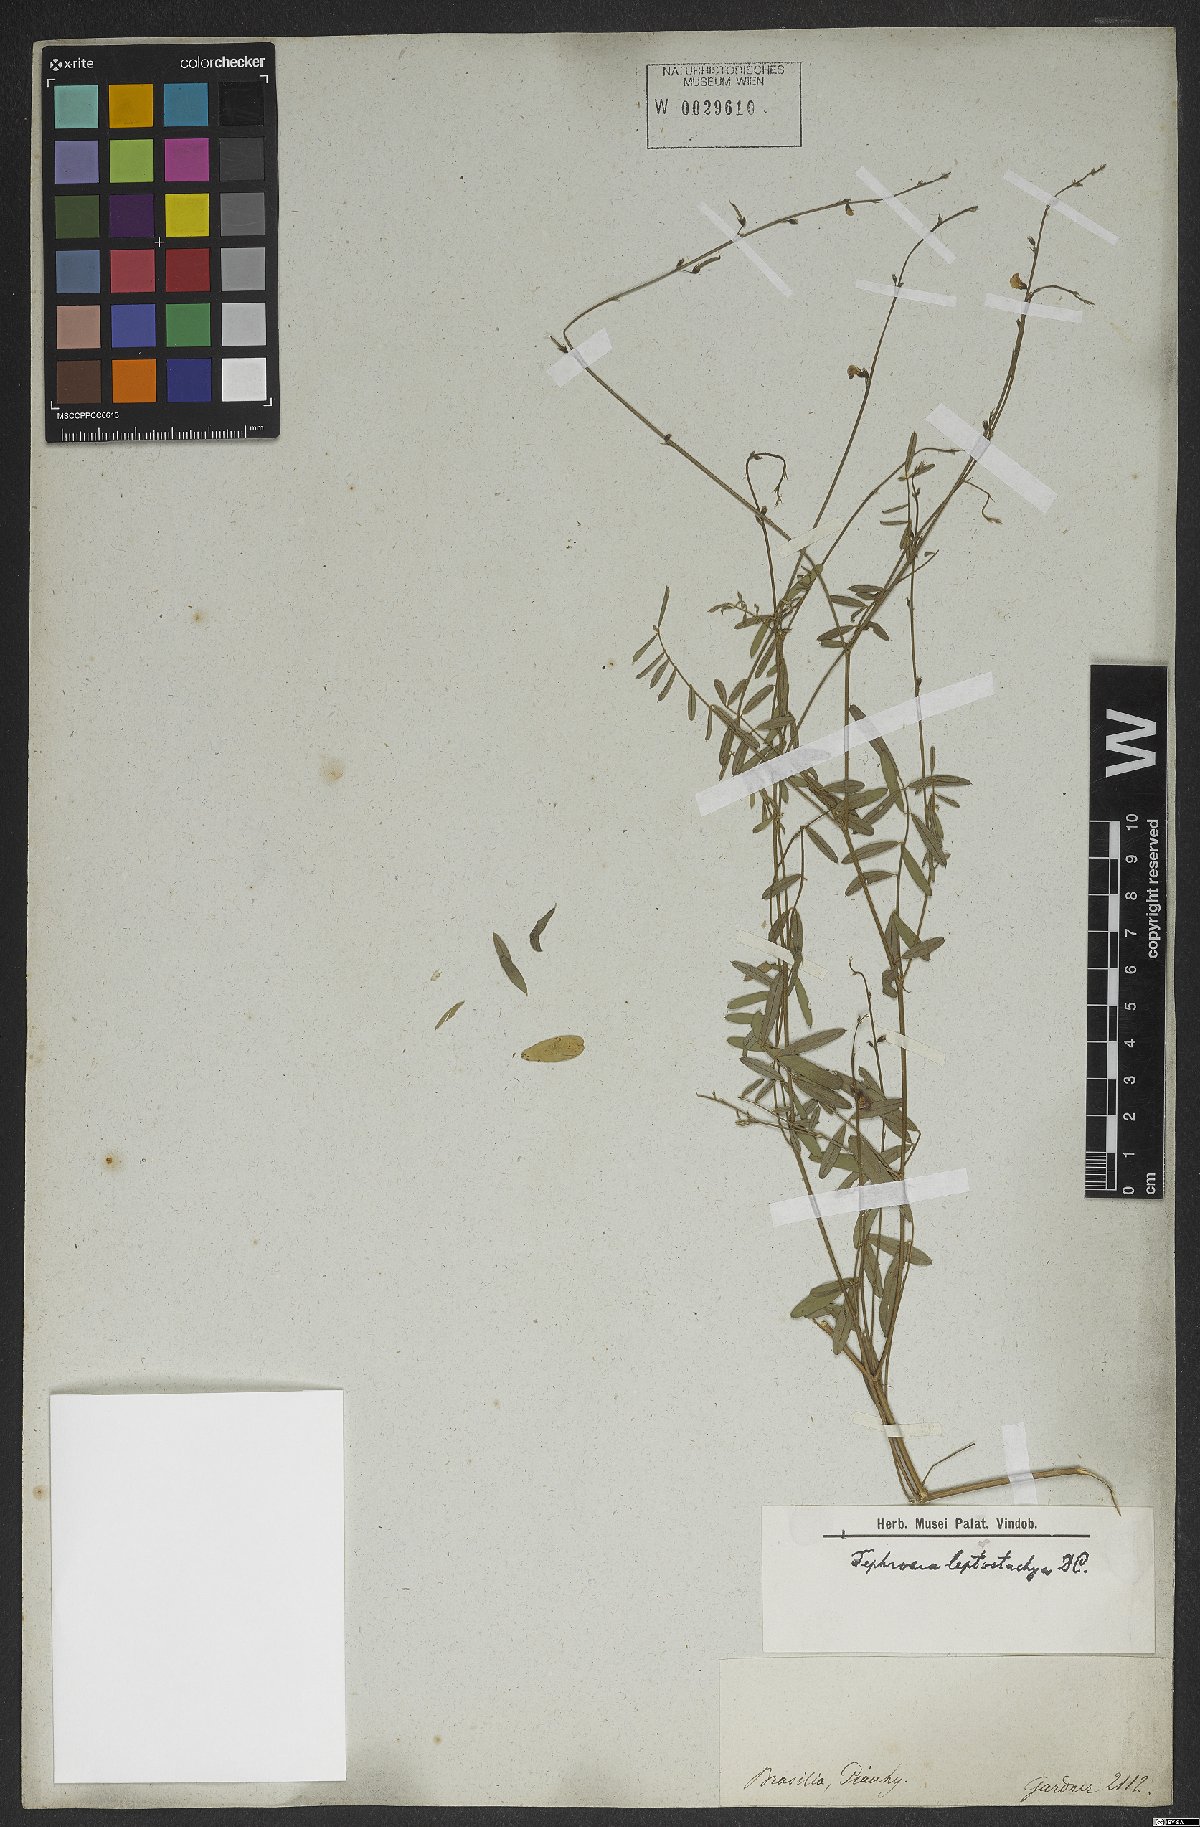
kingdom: Plantae
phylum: Tracheophyta
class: Magnoliopsida
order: Fabales
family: Fabaceae
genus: Tephrosia
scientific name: Tephrosia purpurea
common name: Fishpoison
